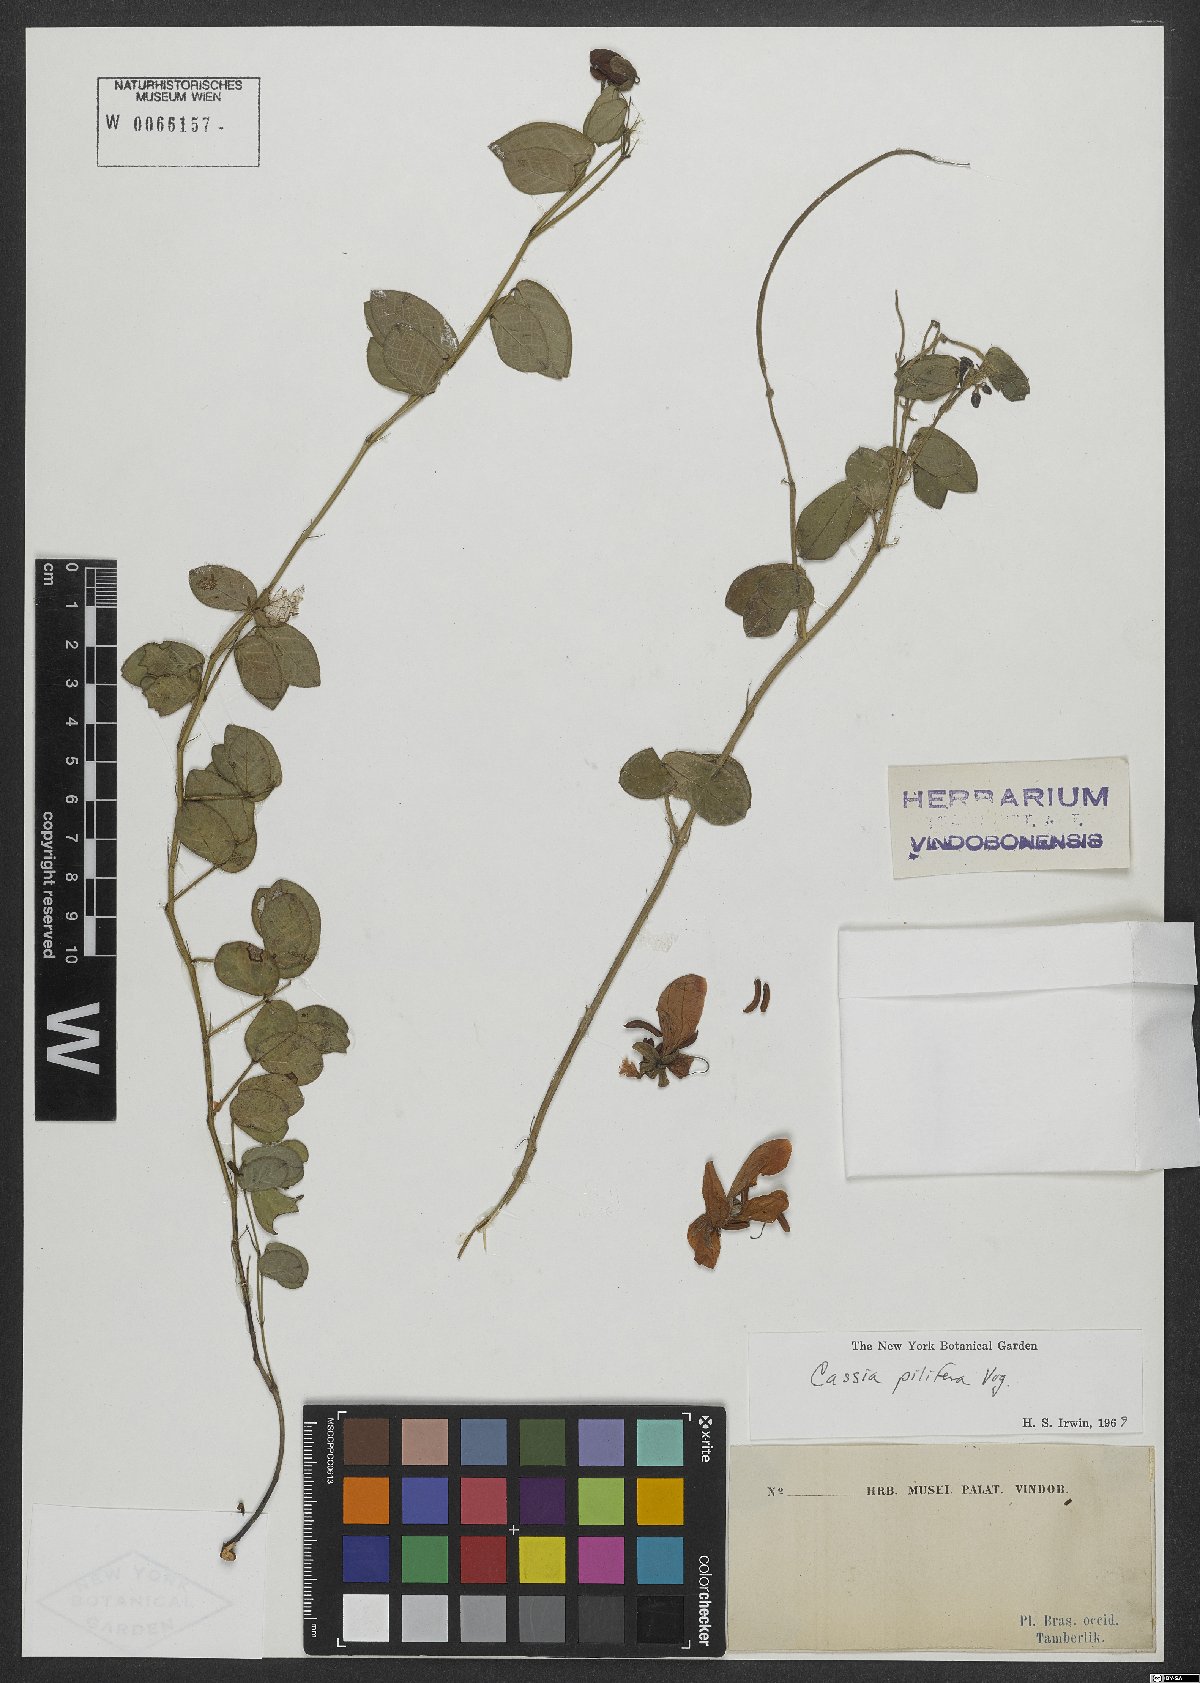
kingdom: Plantae
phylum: Tracheophyta
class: Magnoliopsida
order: Fabales
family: Fabaceae
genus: Senna
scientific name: Senna pilifera
